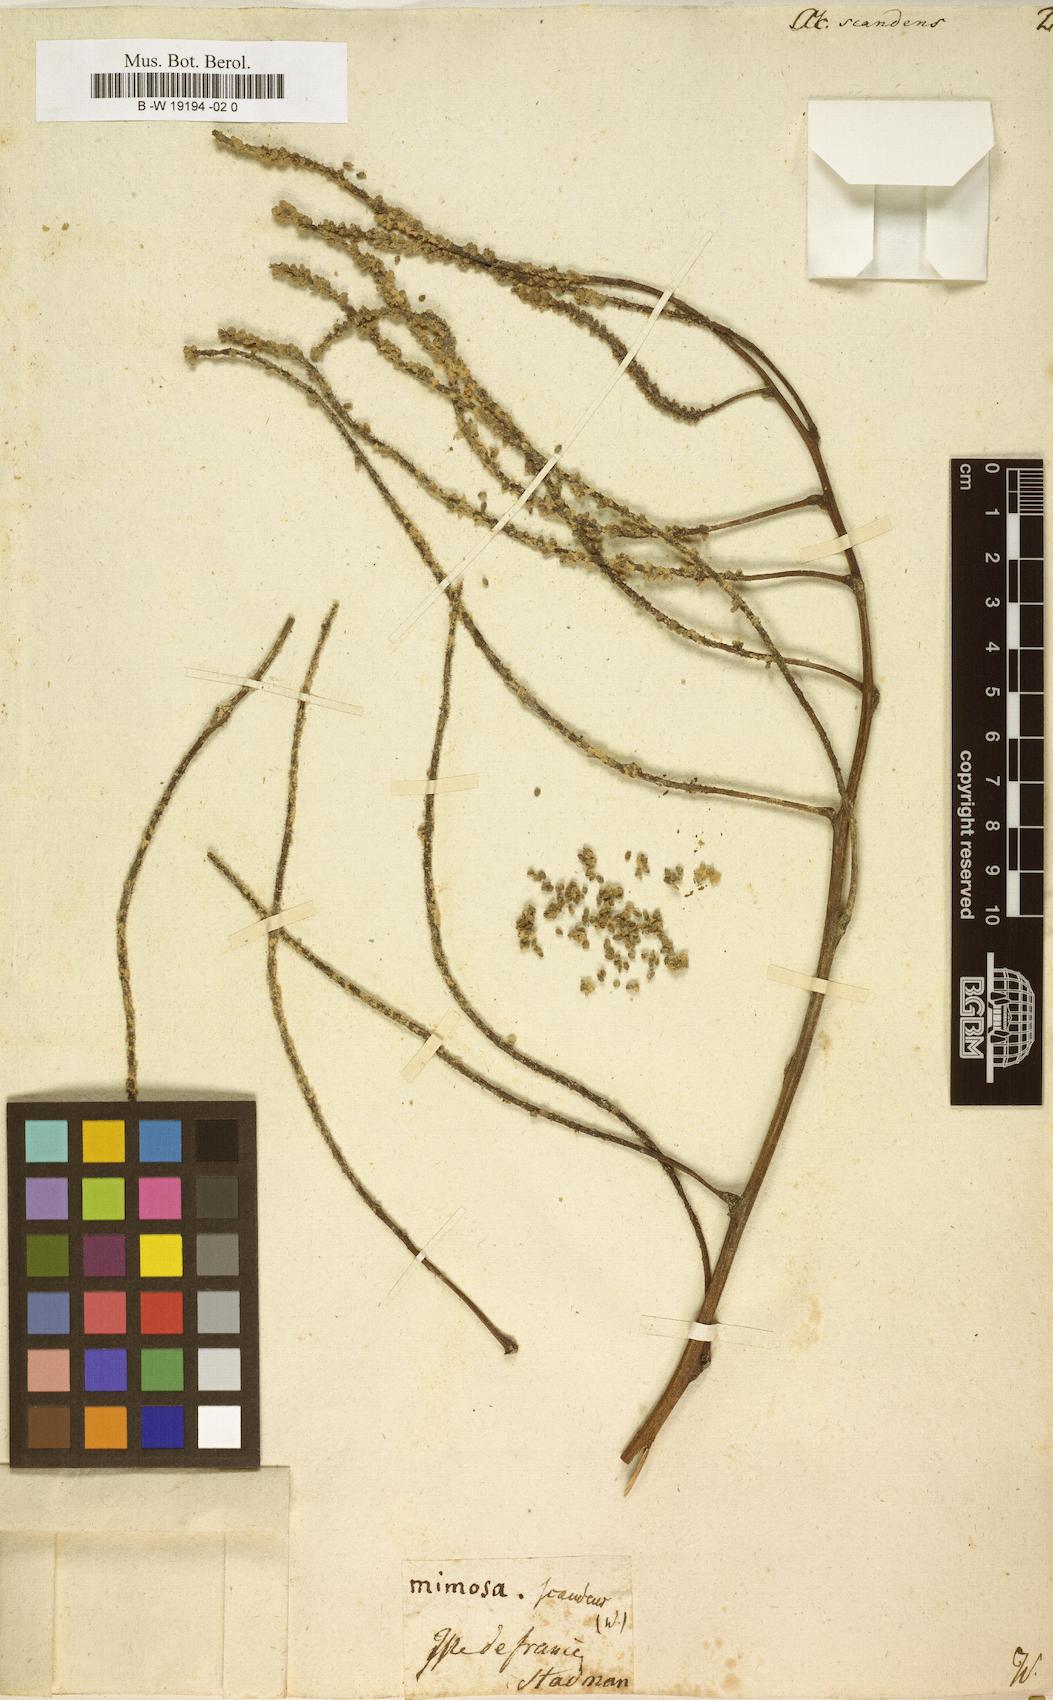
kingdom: Plantae
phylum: Tracheophyta
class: Magnoliopsida
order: Fabales
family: Fabaceae
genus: Entada
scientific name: Entada phaseoloides
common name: Matchbox-bean
